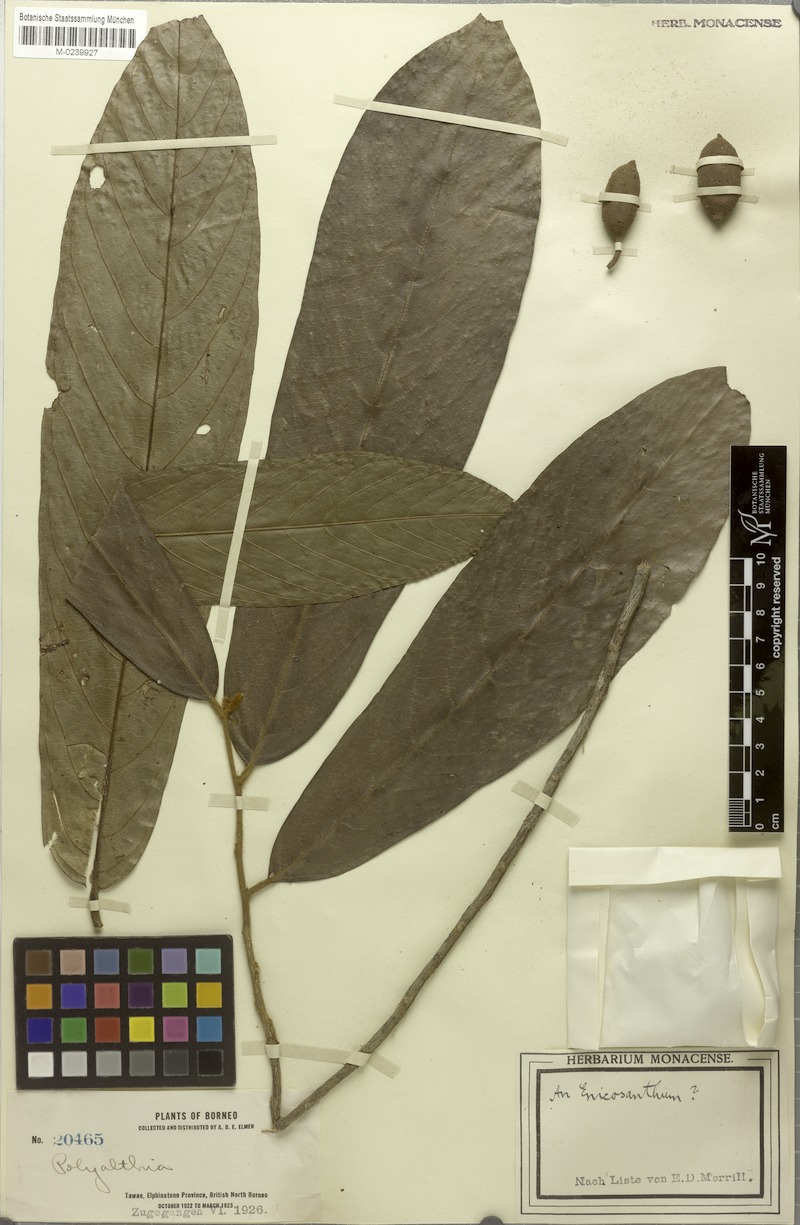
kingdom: Plantae
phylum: Tracheophyta
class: Magnoliopsida
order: Magnoliales
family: Annonaceae
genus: Enicosanthum
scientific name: Enicosanthum grandifolium
